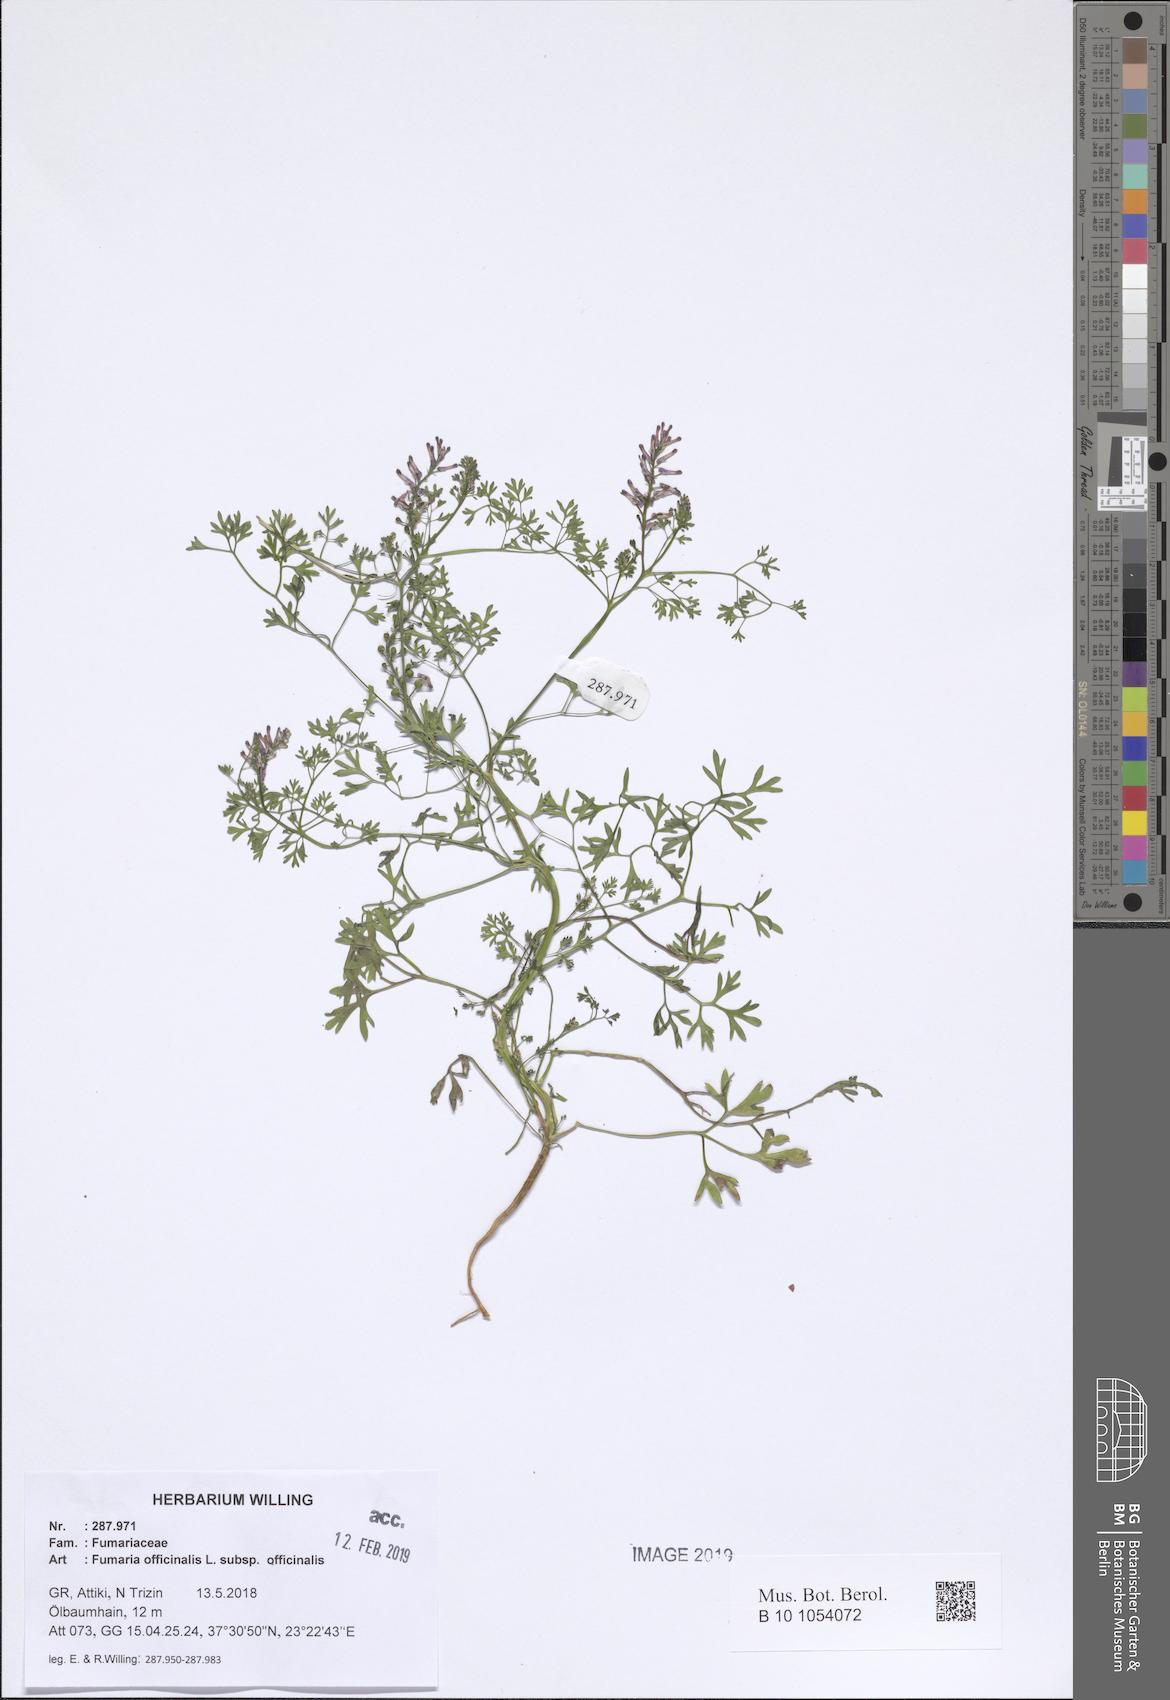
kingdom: Plantae
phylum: Tracheophyta
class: Magnoliopsida
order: Ranunculales
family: Papaveraceae
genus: Fumaria
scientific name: Fumaria officinalis
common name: Common fumitory
